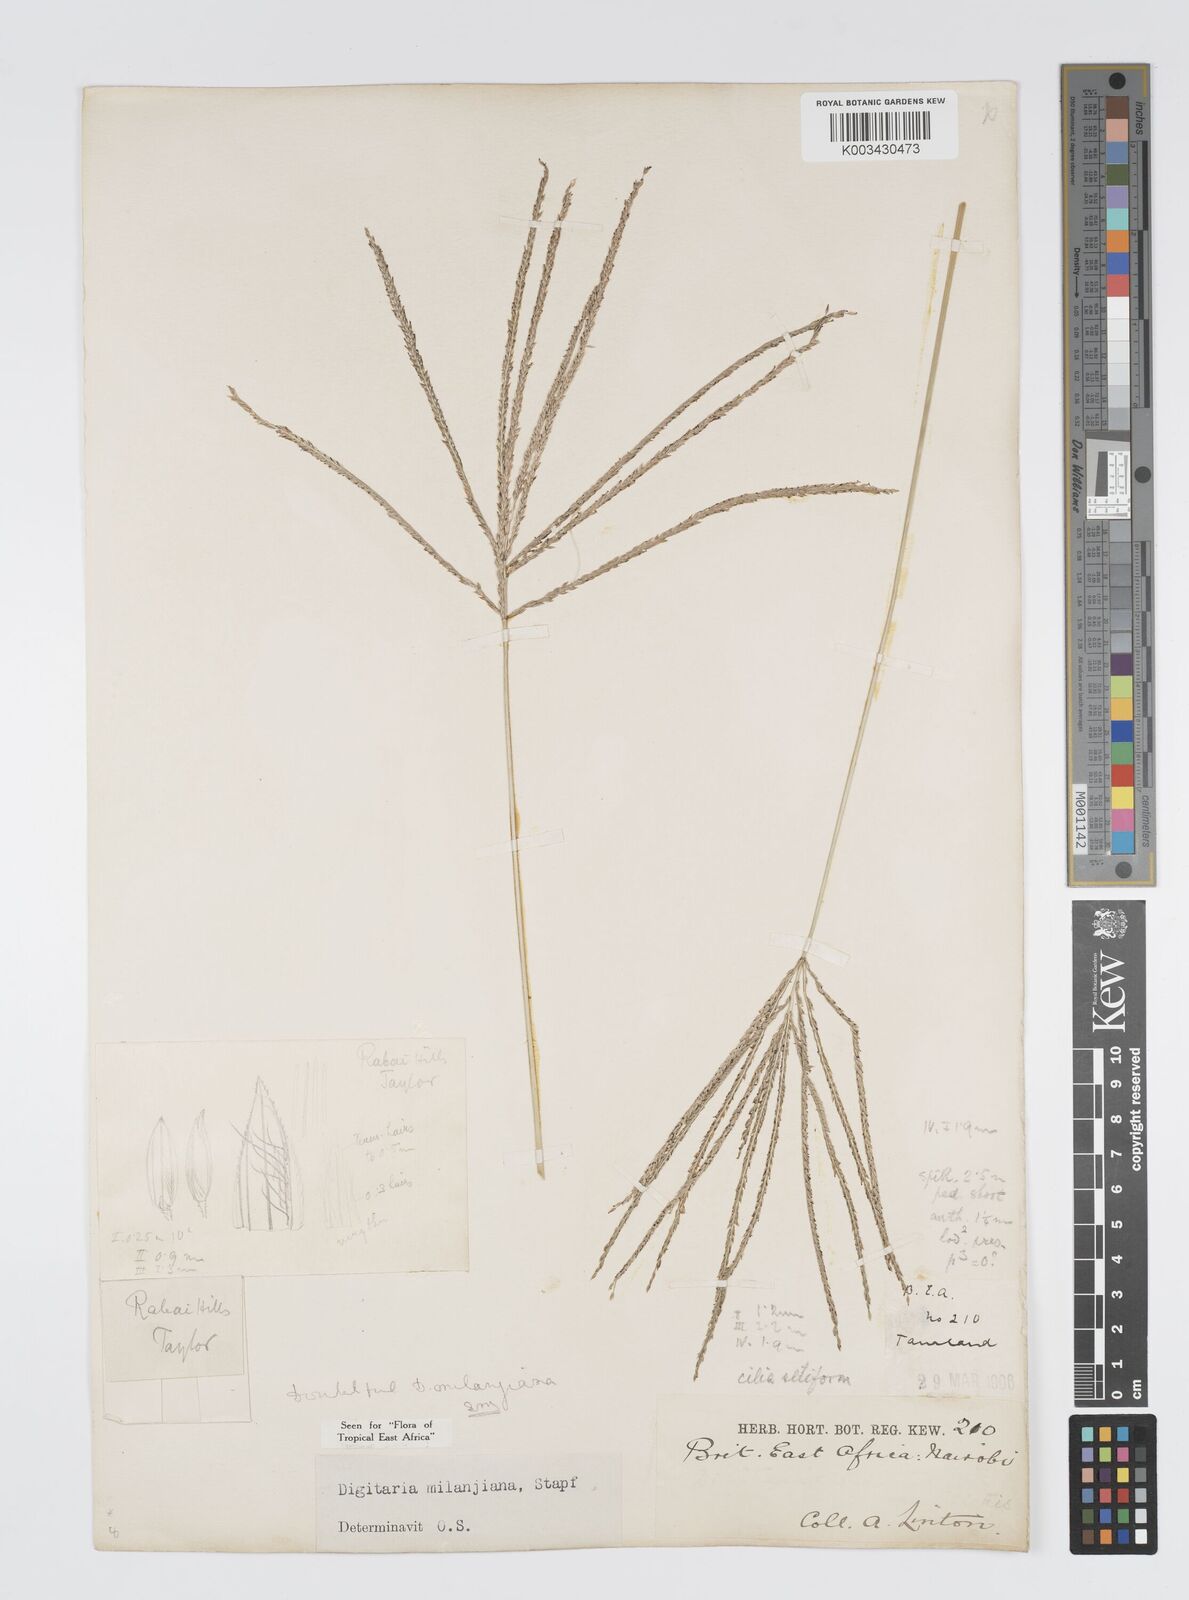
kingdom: Plantae
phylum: Tracheophyta
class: Liliopsida
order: Poales
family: Poaceae
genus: Digitaria
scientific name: Digitaria milanjiana
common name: Madagascar crabgrass
